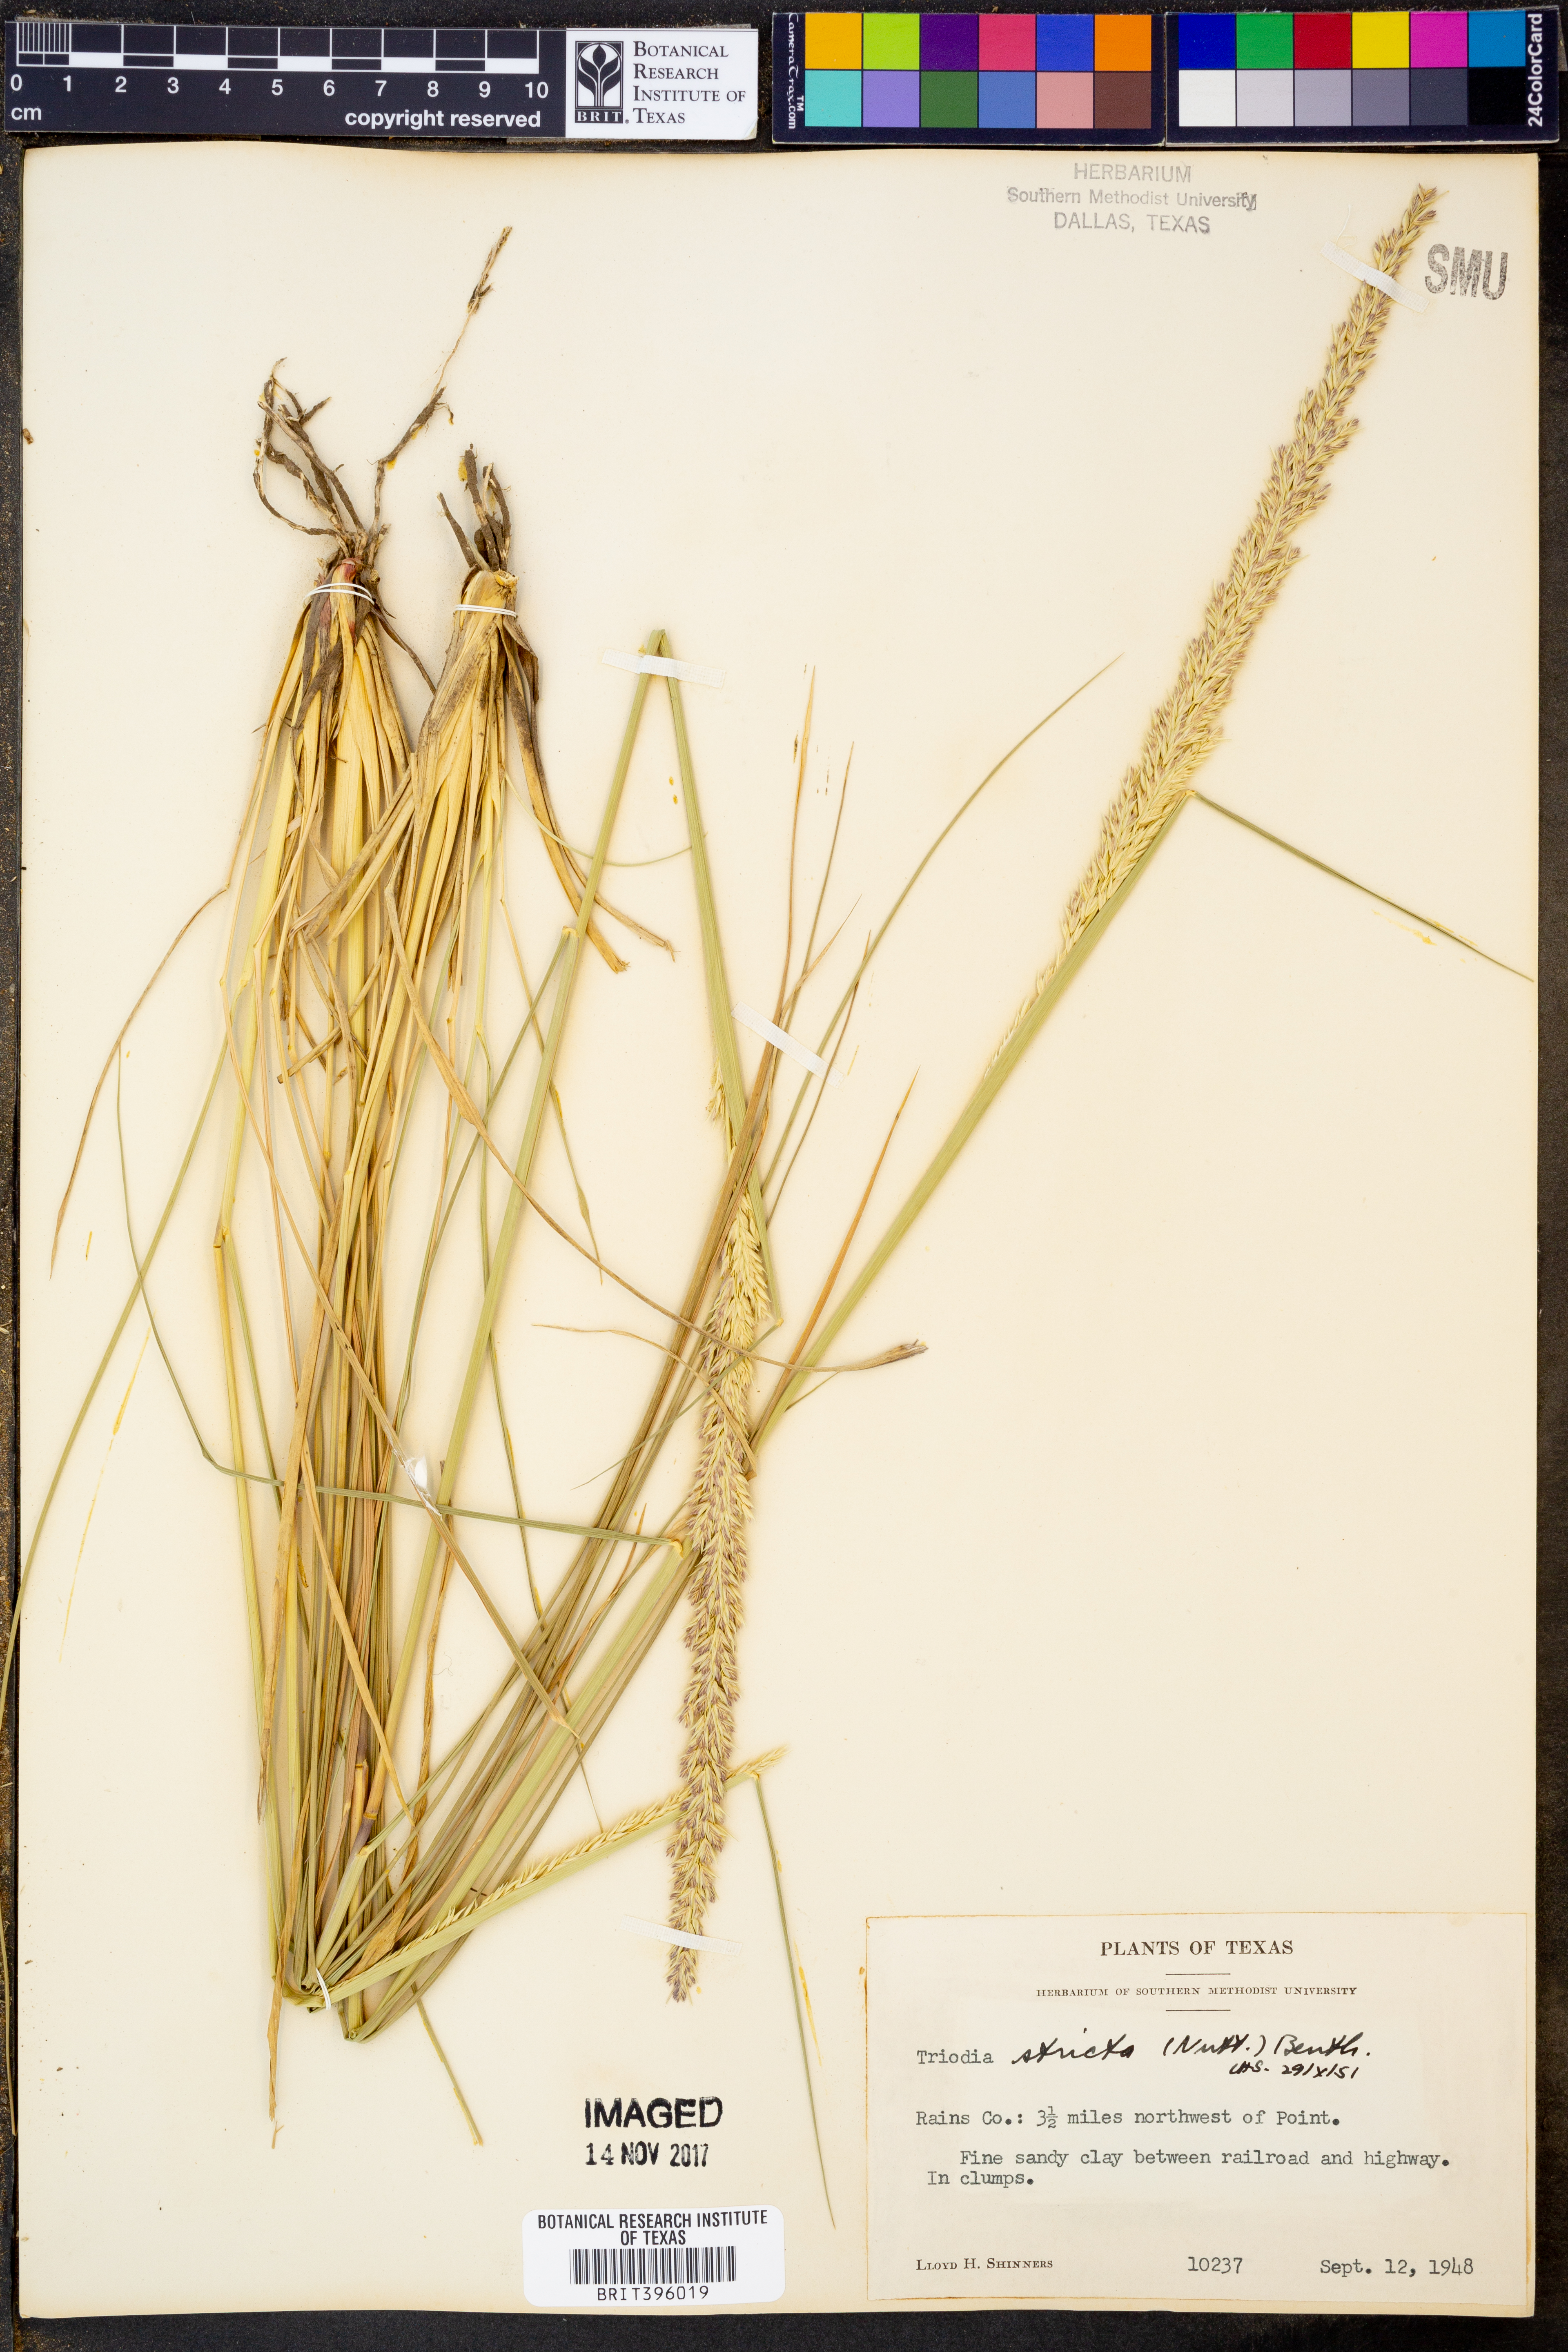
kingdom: Plantae
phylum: Tracheophyta
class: Liliopsida
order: Poales
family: Poaceae
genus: Tridens
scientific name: Tridens strictus
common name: Long-spike tridens
